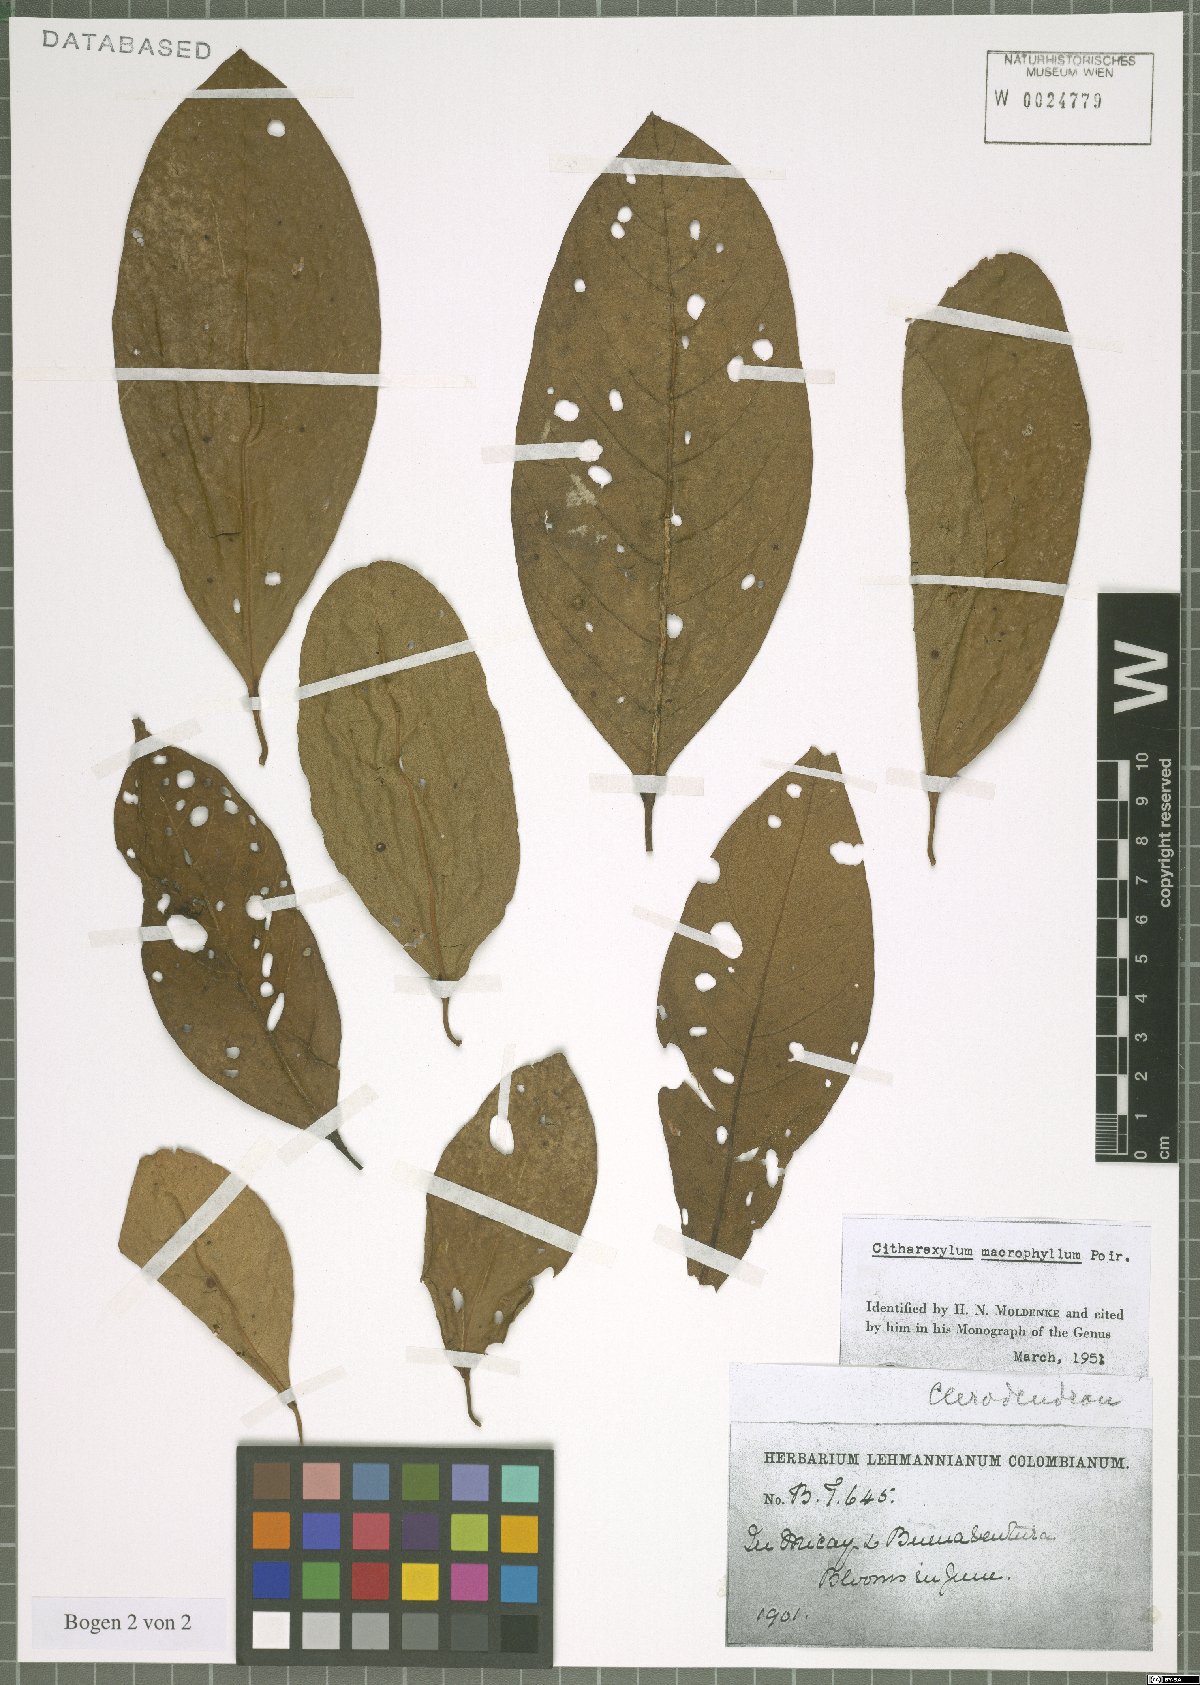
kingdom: Plantae
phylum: Tracheophyta
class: Magnoliopsida
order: Lamiales
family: Verbenaceae
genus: Citharexylum
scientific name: Citharexylum spinosum
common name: Fiddlewood
